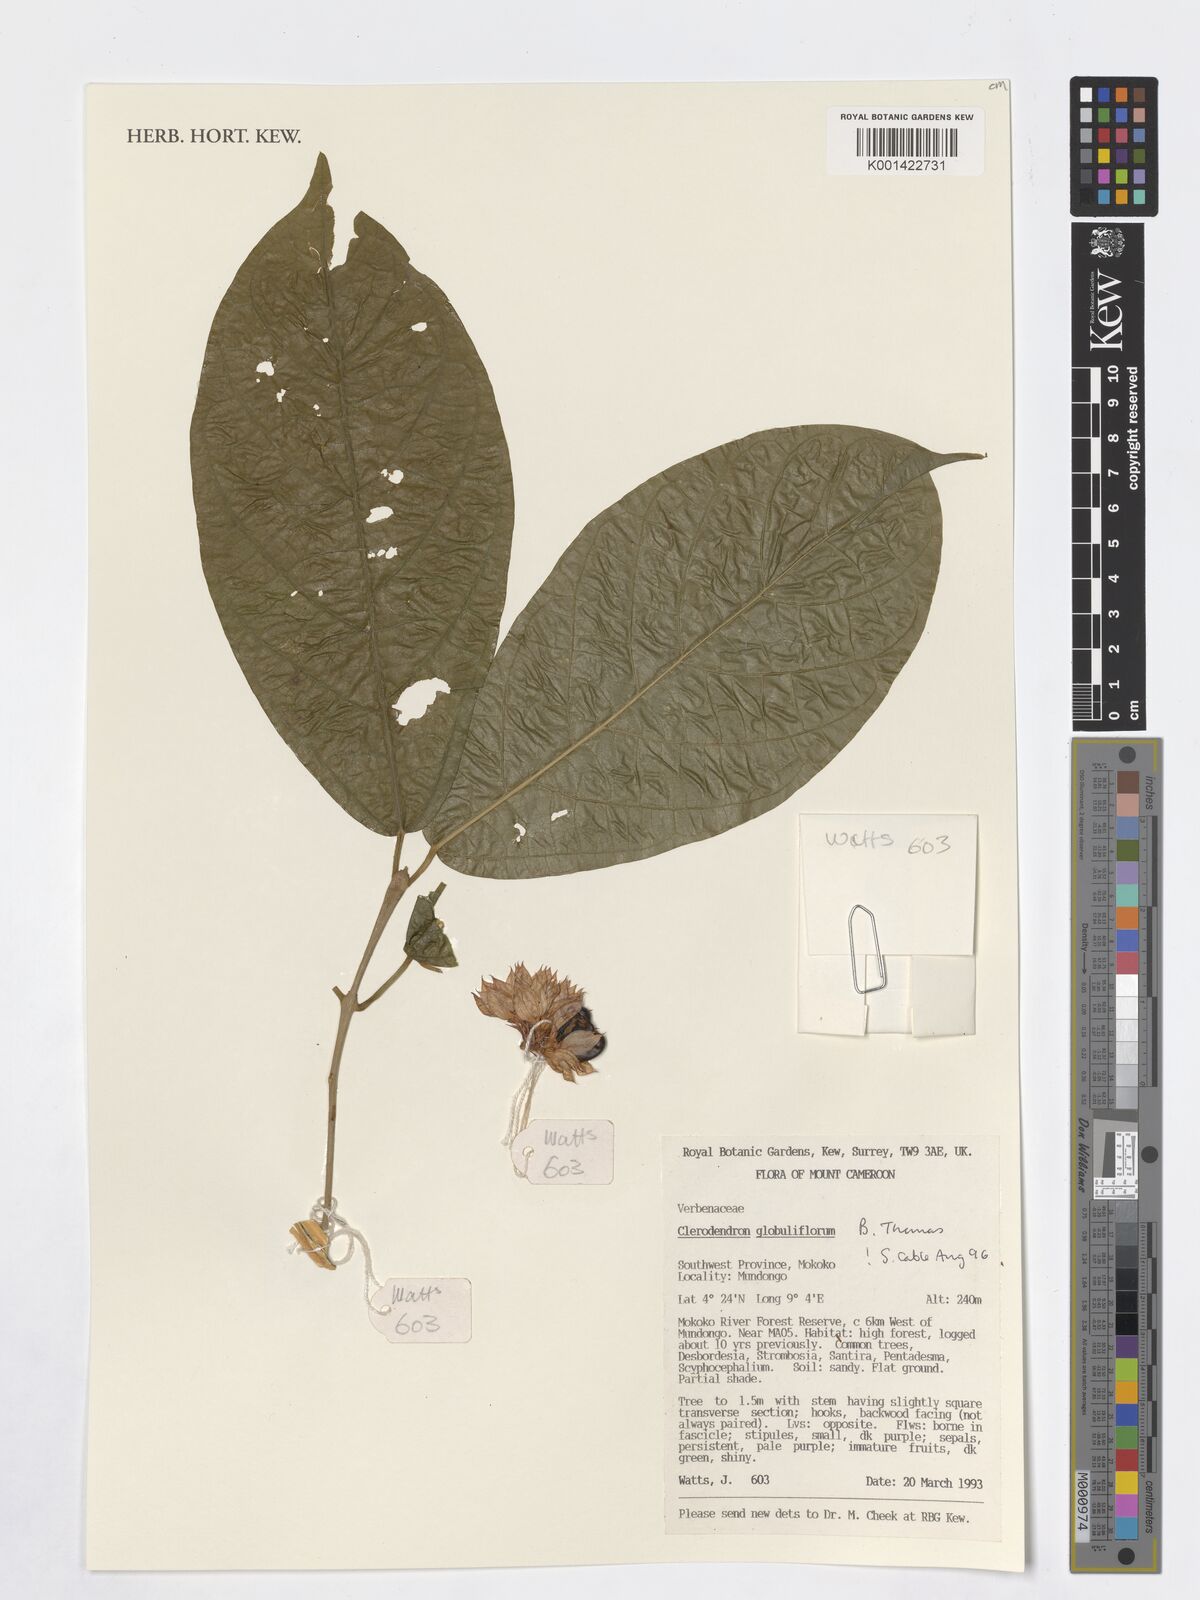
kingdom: Plantae
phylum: Tracheophyta
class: Magnoliopsida
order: Lamiales
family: Verbenaceae
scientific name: Verbenaceae
